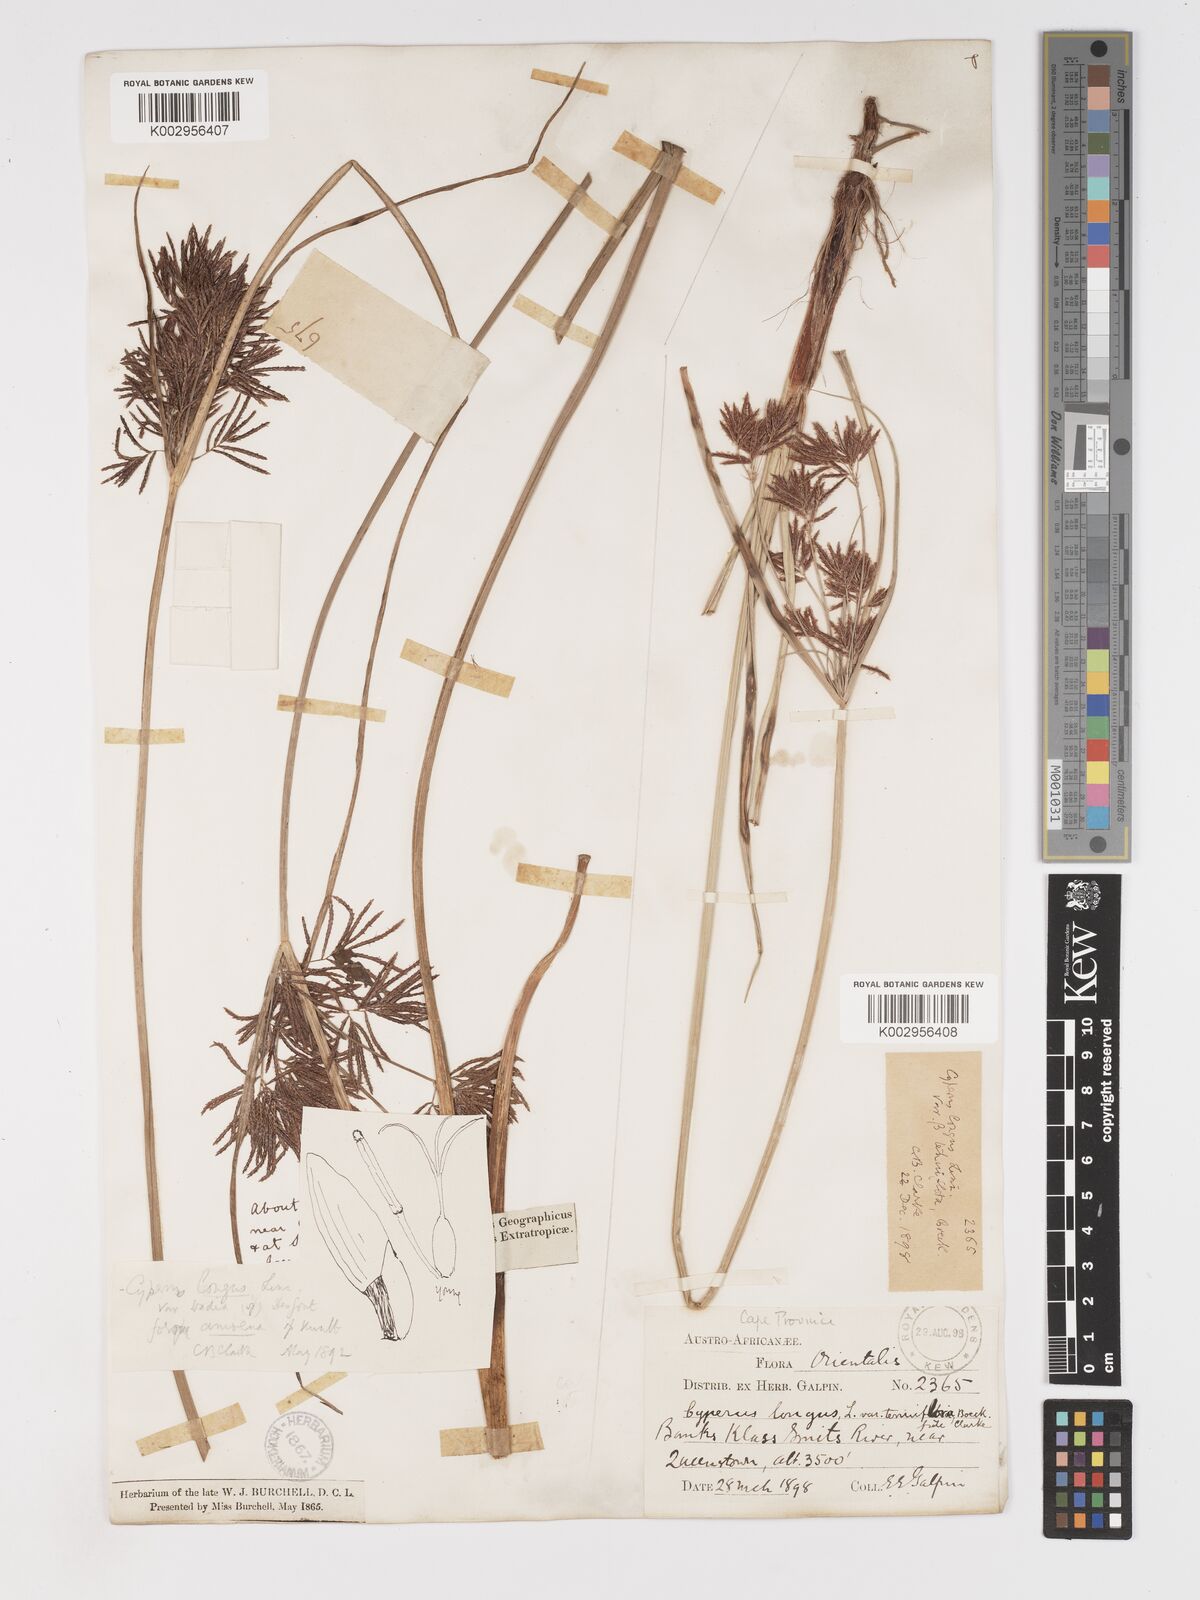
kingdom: Plantae
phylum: Tracheophyta
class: Liliopsida
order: Poales
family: Cyperaceae
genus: Cyperus
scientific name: Cyperus longus
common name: Galingale
